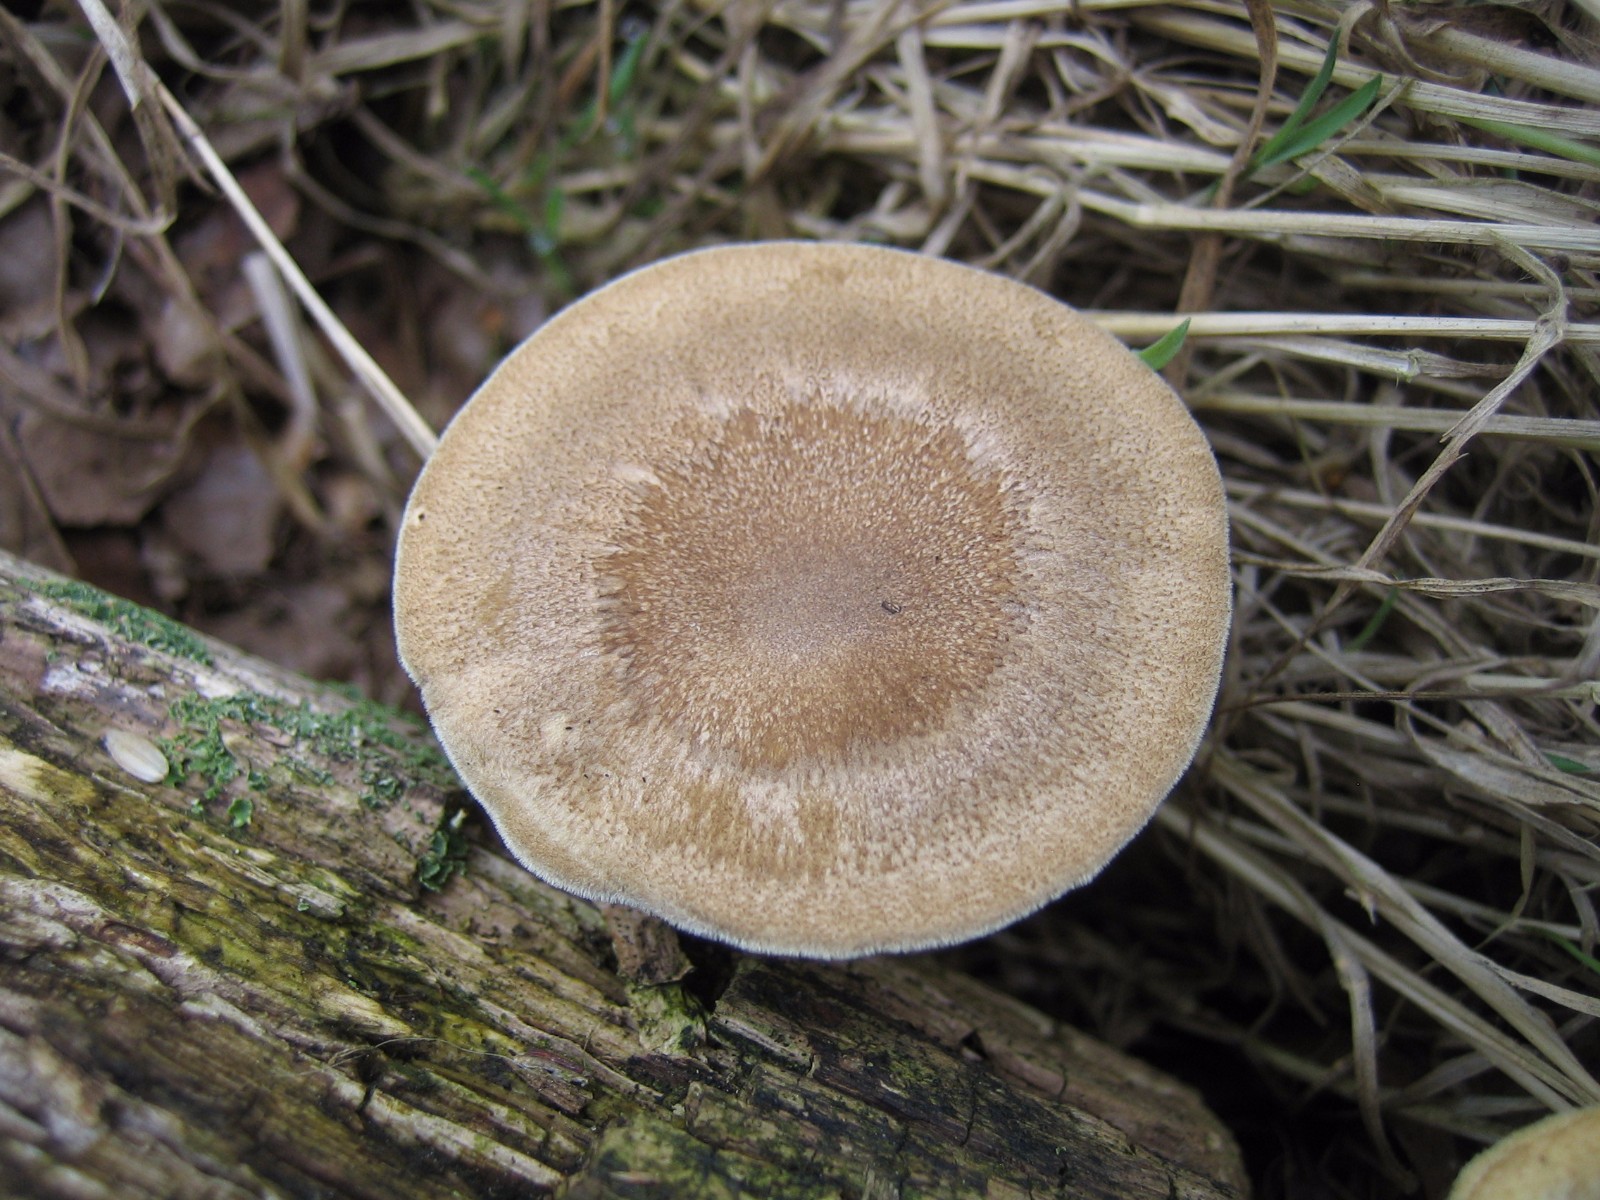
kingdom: Fungi
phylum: Basidiomycota
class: Agaricomycetes
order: Polyporales
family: Polyporaceae
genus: Lentinus
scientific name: Lentinus substrictus
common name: forårs-stilkporesvamp
